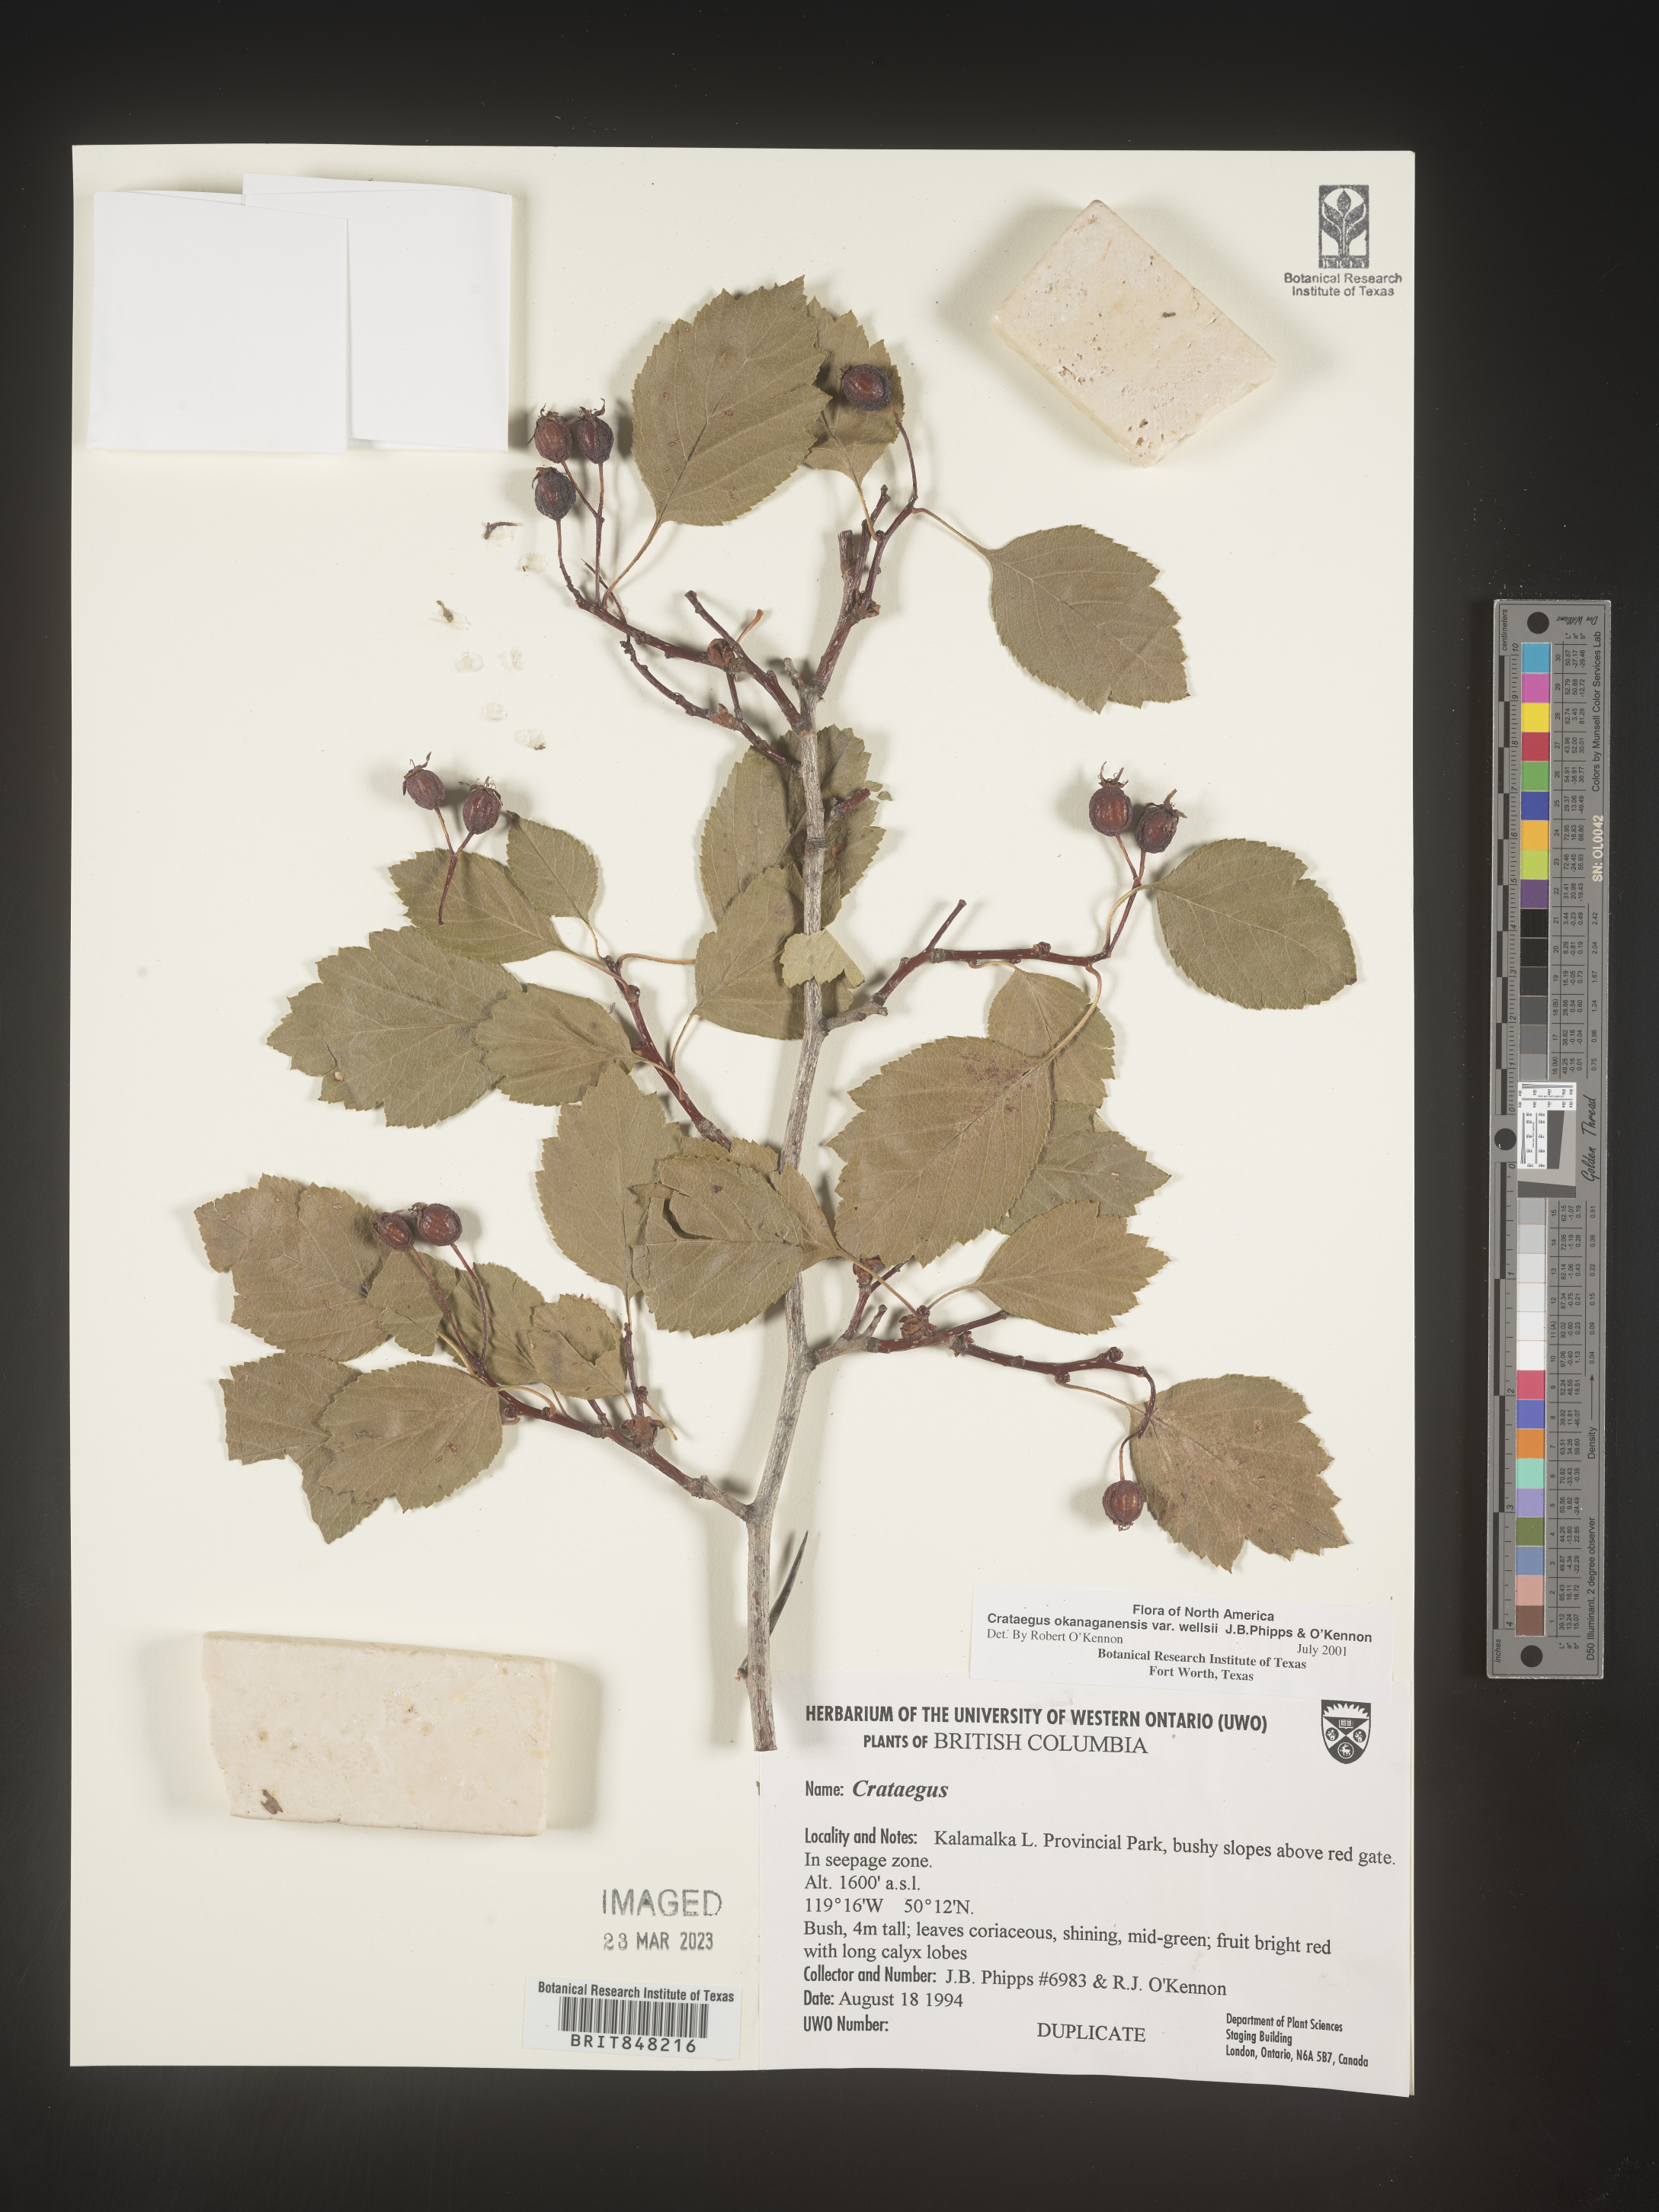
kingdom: Plantae
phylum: Tracheophyta
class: Magnoliopsida
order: Rosales
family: Rosaceae
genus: Crataegus
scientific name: Crataegus okanaganensis
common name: Okanagan valley hawthorn
